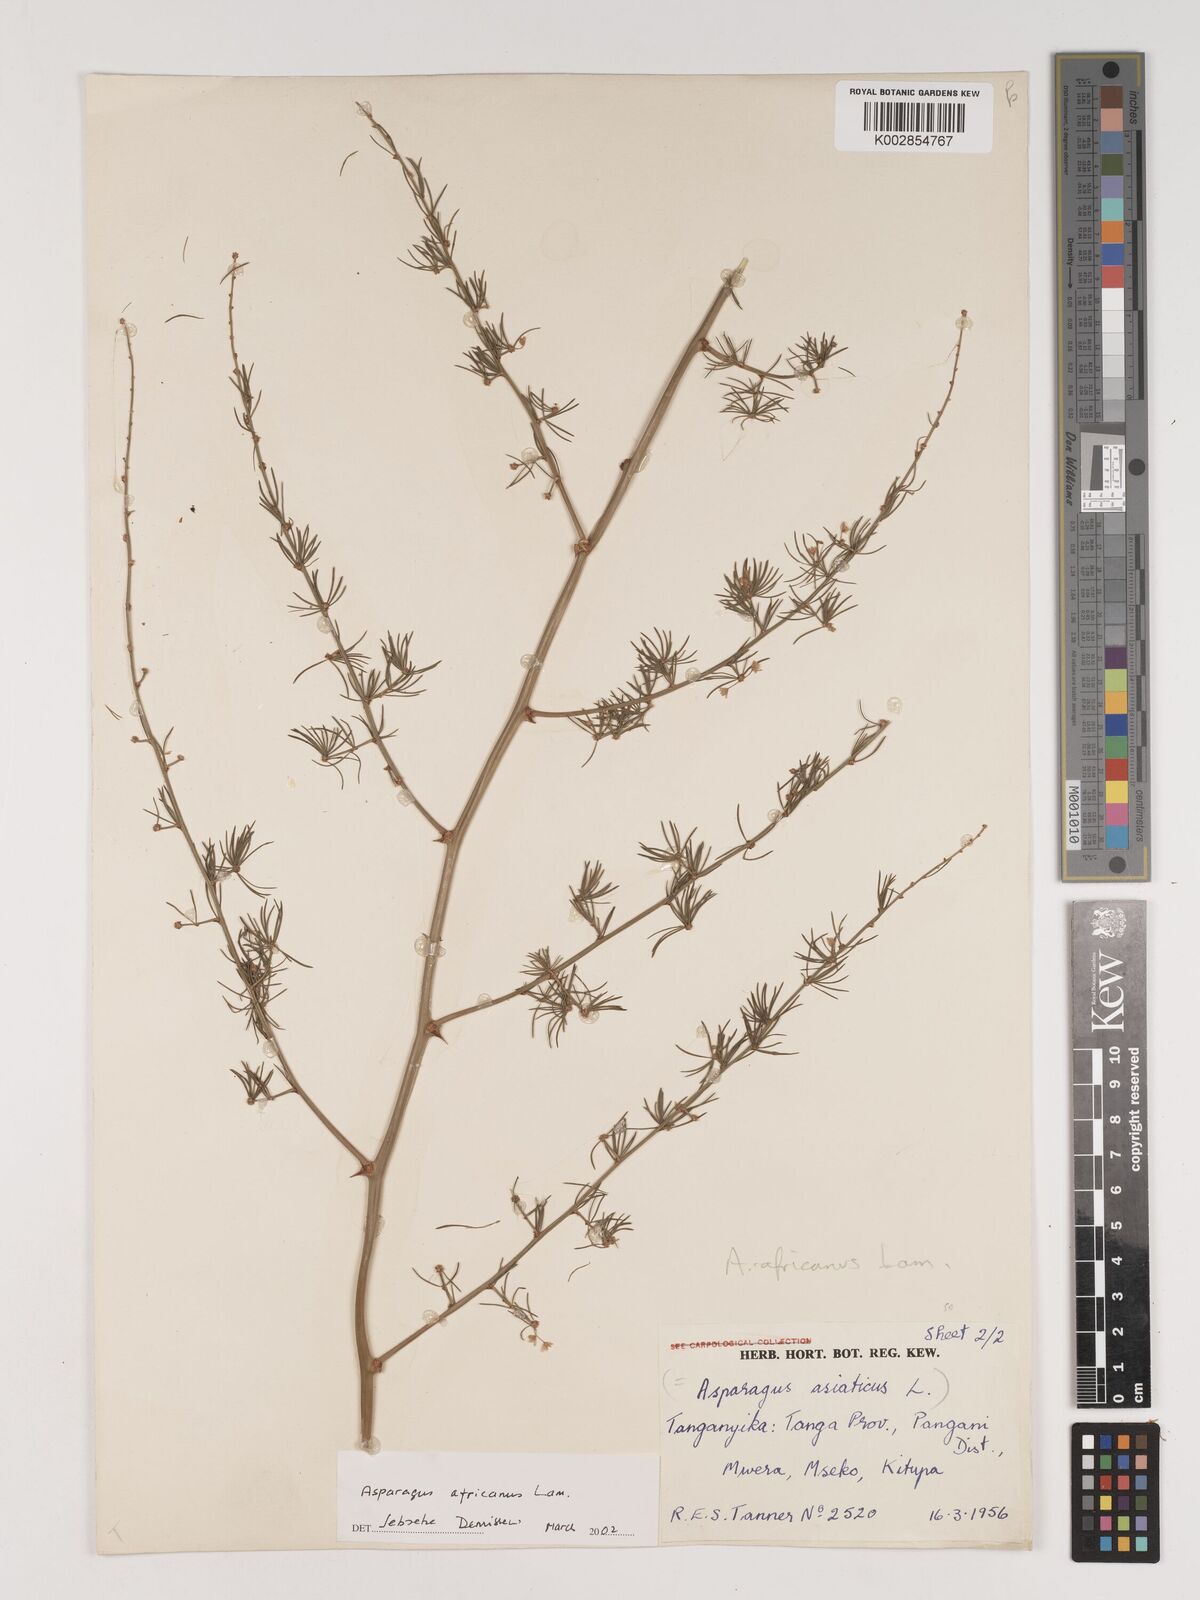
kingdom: Plantae
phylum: Tracheophyta
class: Liliopsida
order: Asparagales
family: Asparagaceae
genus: Asparagus
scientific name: Asparagus africanus
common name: Asparagus-fern
